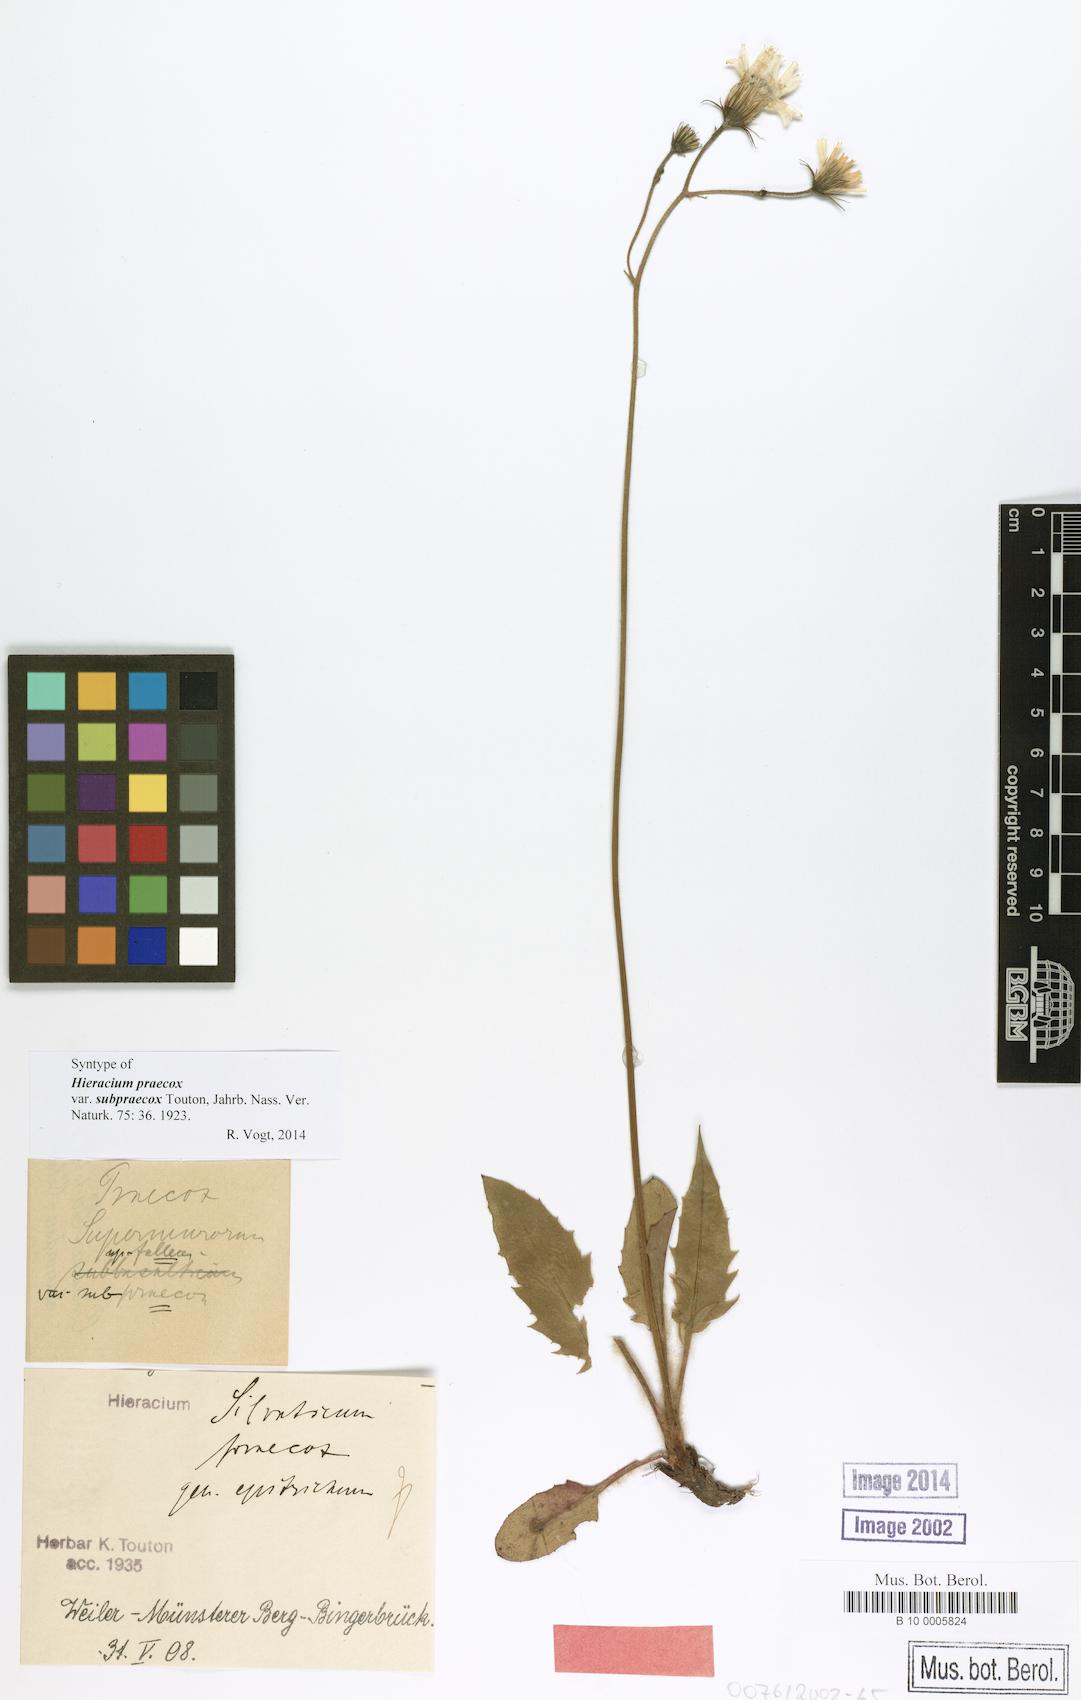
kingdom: Plantae
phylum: Tracheophyta
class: Magnoliopsida
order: Asterales
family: Asteraceae
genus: Hieracium
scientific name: Hieracium praecox
